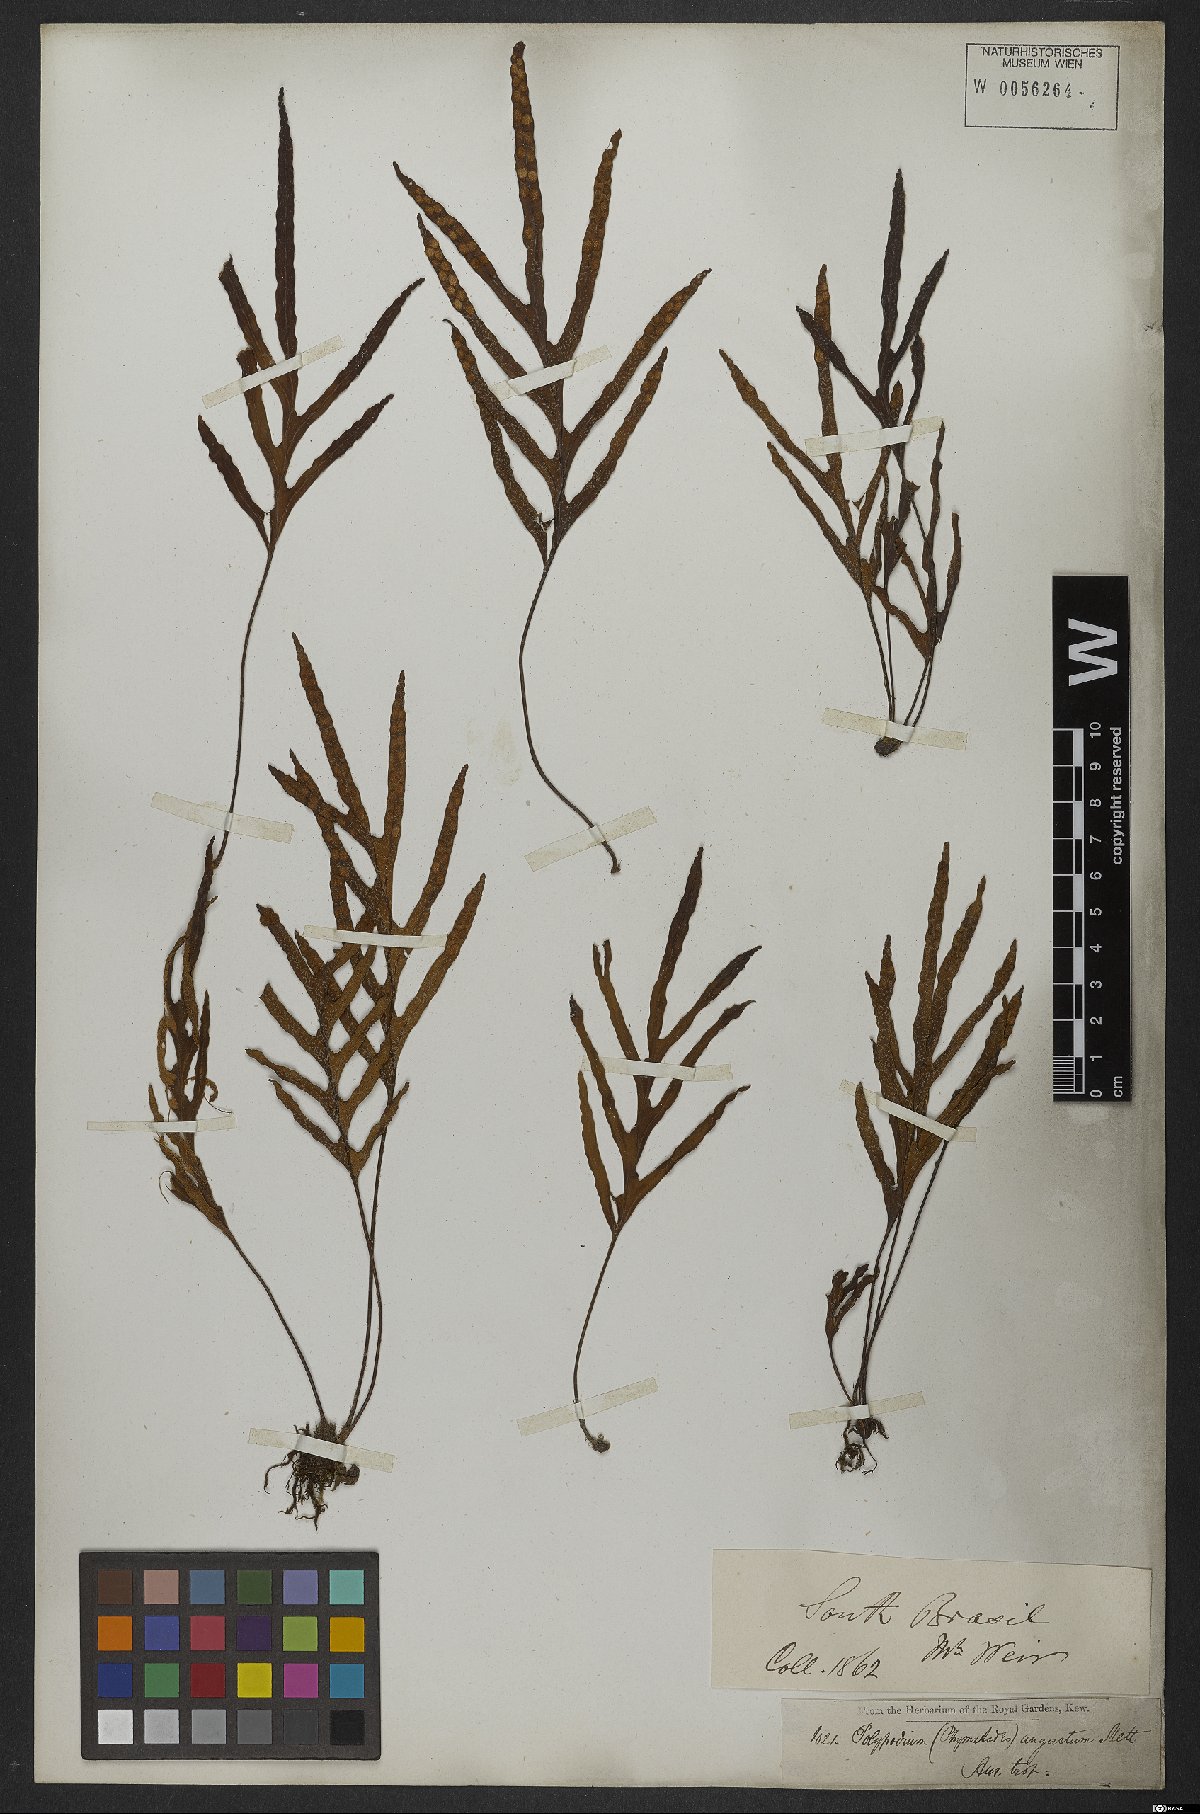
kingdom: Plantae
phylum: Tracheophyta
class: Polypodiopsida
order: Polypodiales
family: Polypodiaceae
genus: Pleopeltis
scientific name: Pleopeltis angusta
